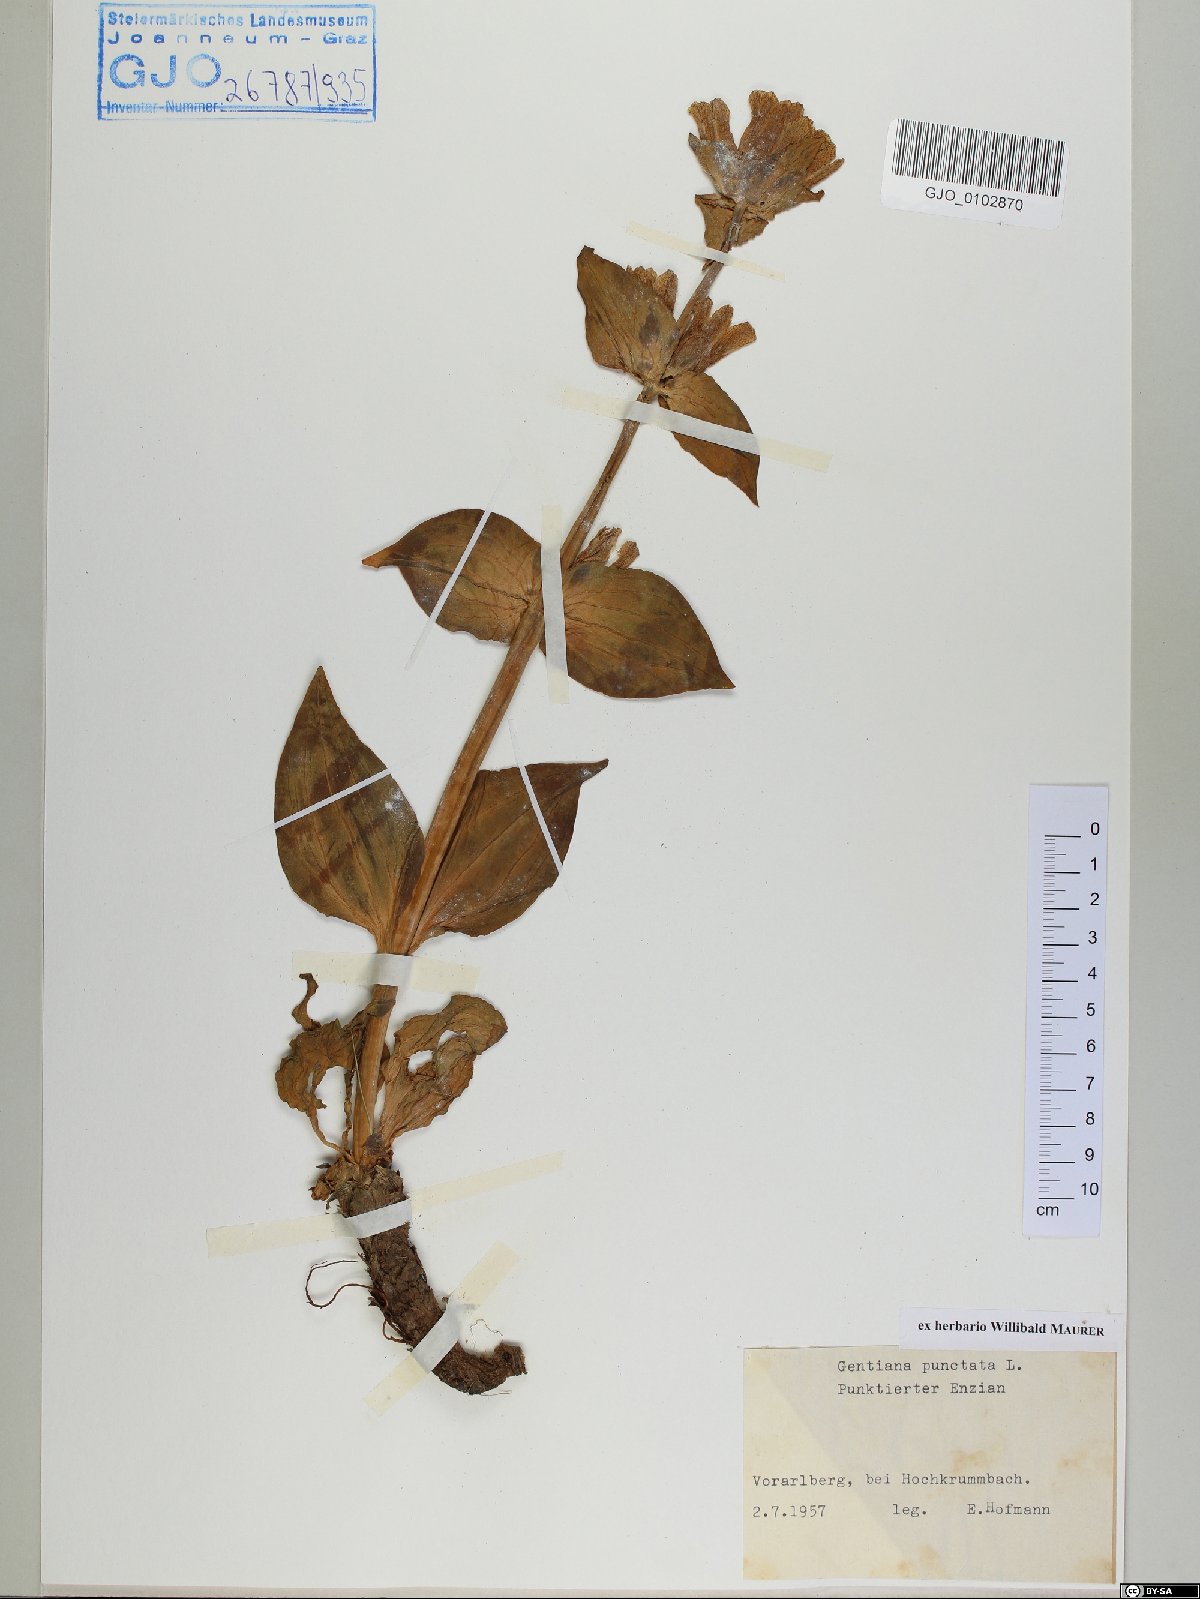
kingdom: Plantae
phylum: Tracheophyta
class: Magnoliopsida
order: Gentianales
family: Gentianaceae
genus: Gentiana
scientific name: Gentiana punctata
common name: Spotted gentian
